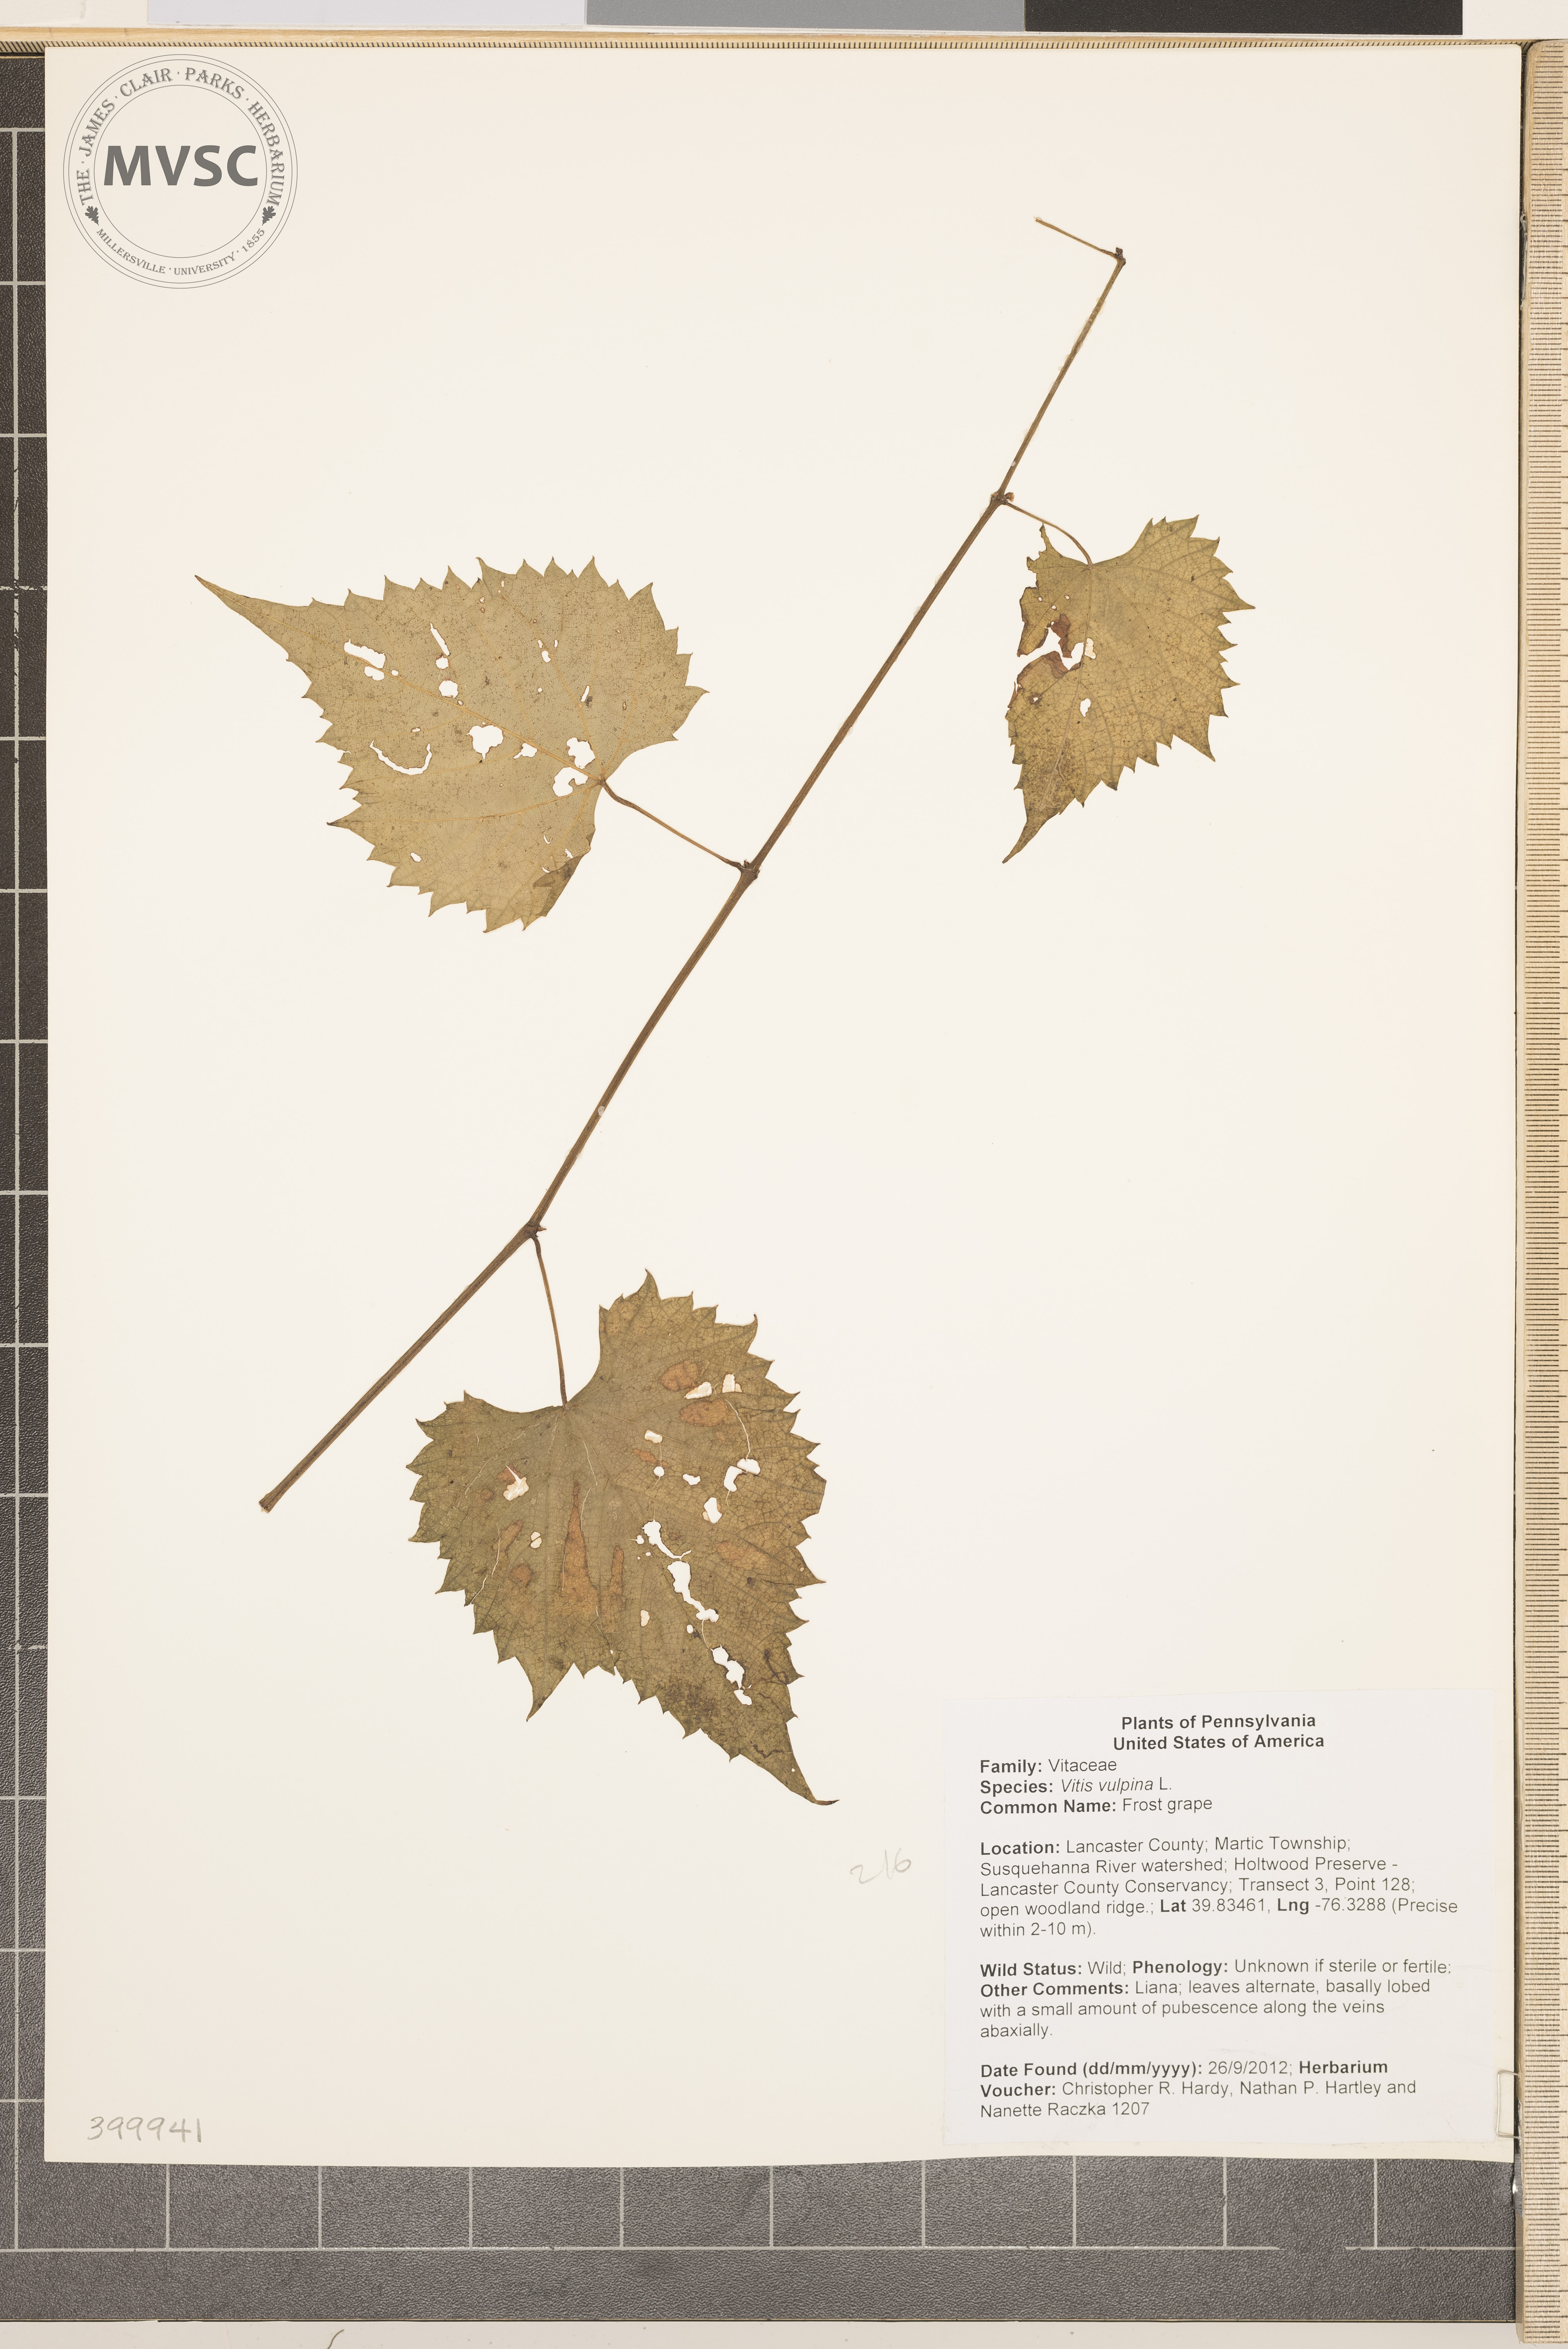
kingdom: Plantae
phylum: Tracheophyta
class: Magnoliopsida
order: Vitales
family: Vitaceae
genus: Vitis
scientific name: Vitis vulpina
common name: Frost grape
